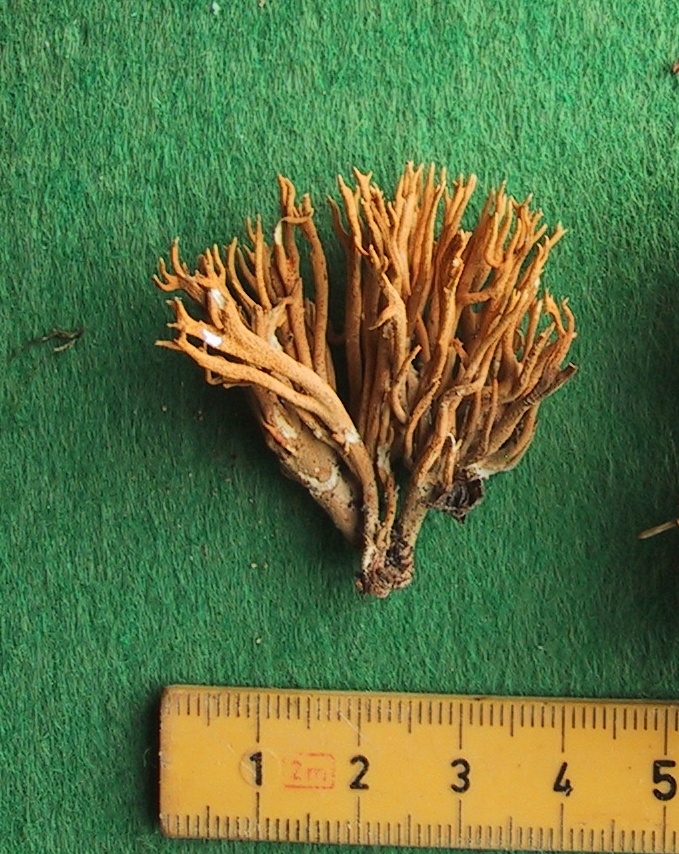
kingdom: Fungi
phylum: Basidiomycota
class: Agaricomycetes
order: Gomphales
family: Gomphaceae
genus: Ramaria
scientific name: Ramaria stricta
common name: rank koralsvamp
